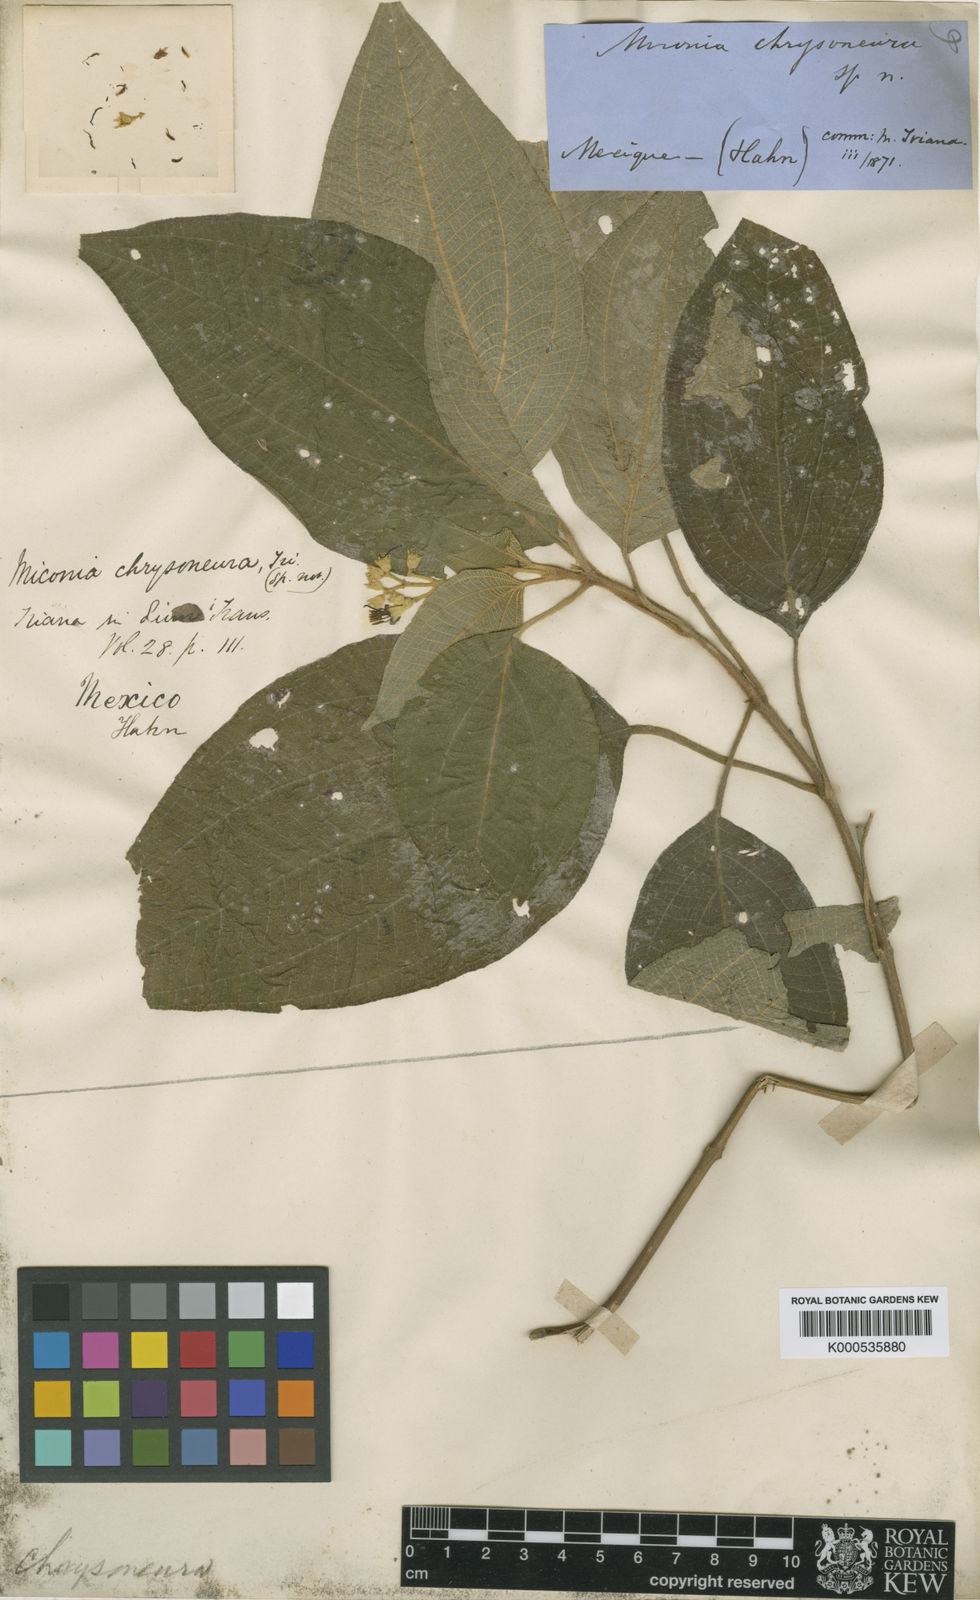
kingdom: Plantae
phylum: Tracheophyta
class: Magnoliopsida
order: Myrtales
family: Melastomataceae
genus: Miconia
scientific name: Miconia chrysoneura
